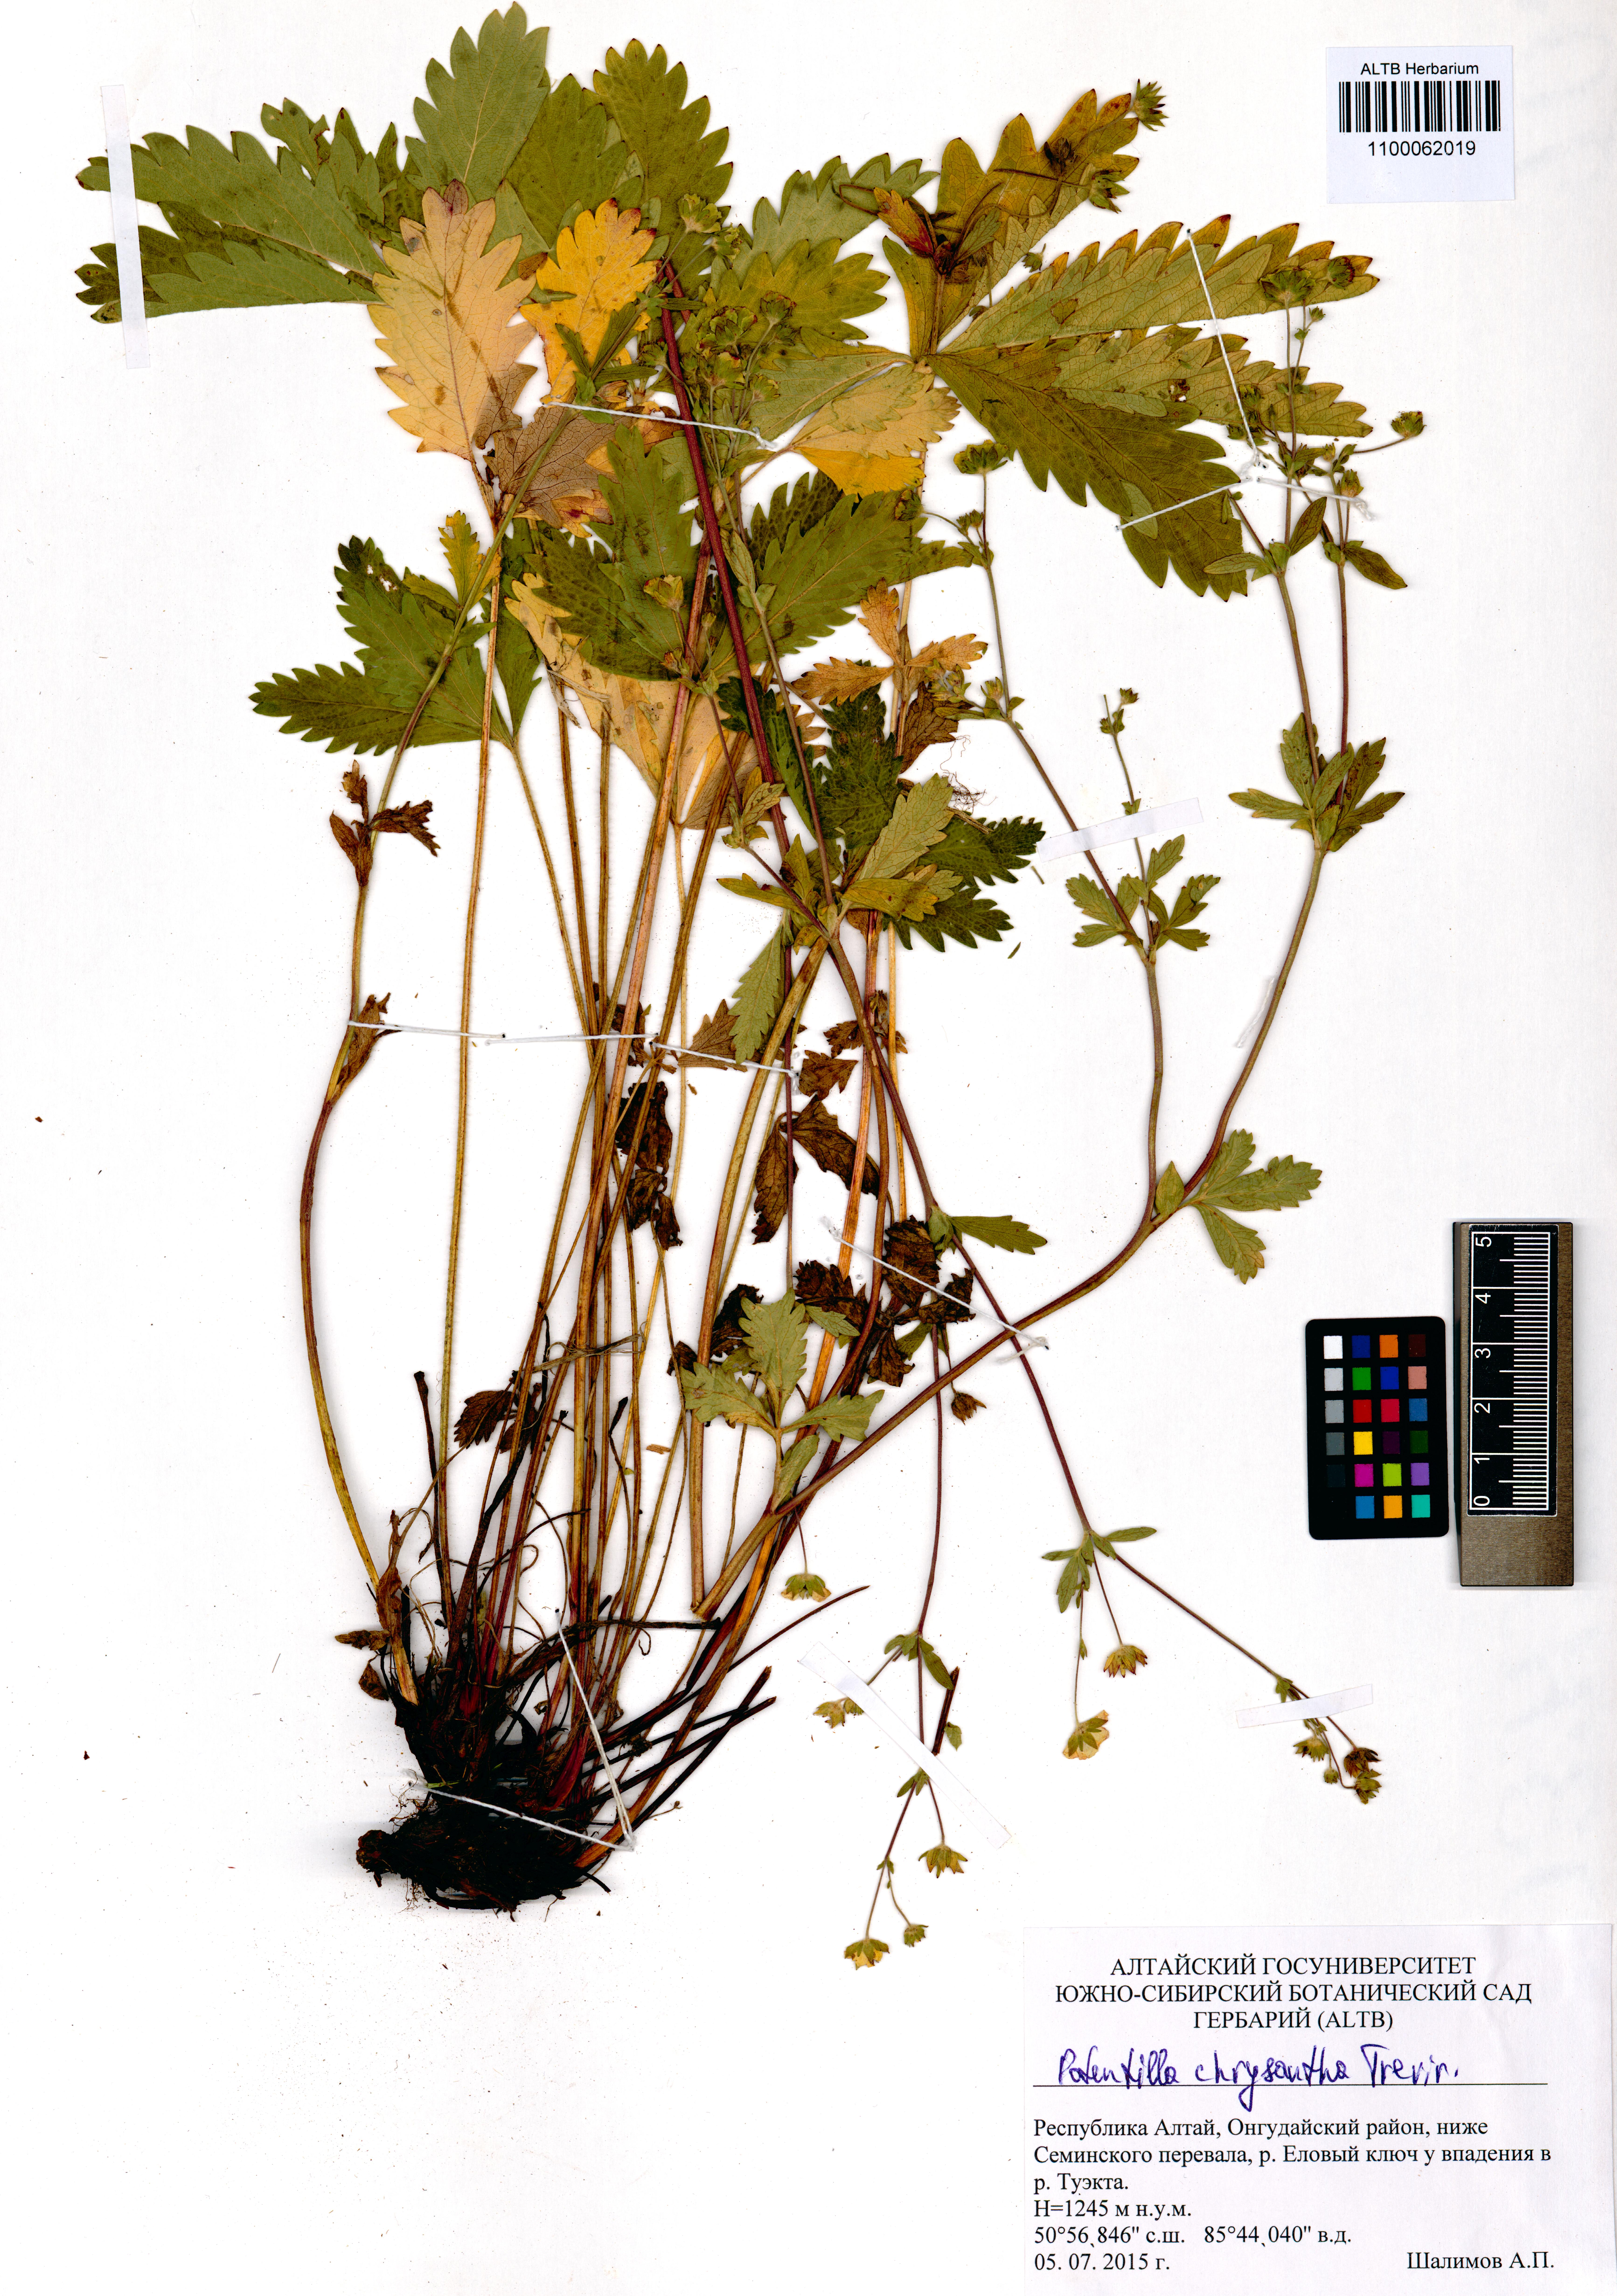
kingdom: Plantae
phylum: Tracheophyta
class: Magnoliopsida
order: Rosales
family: Rosaceae
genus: Potentilla
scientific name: Potentilla chrysantha
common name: Thuringian cinquefoil
